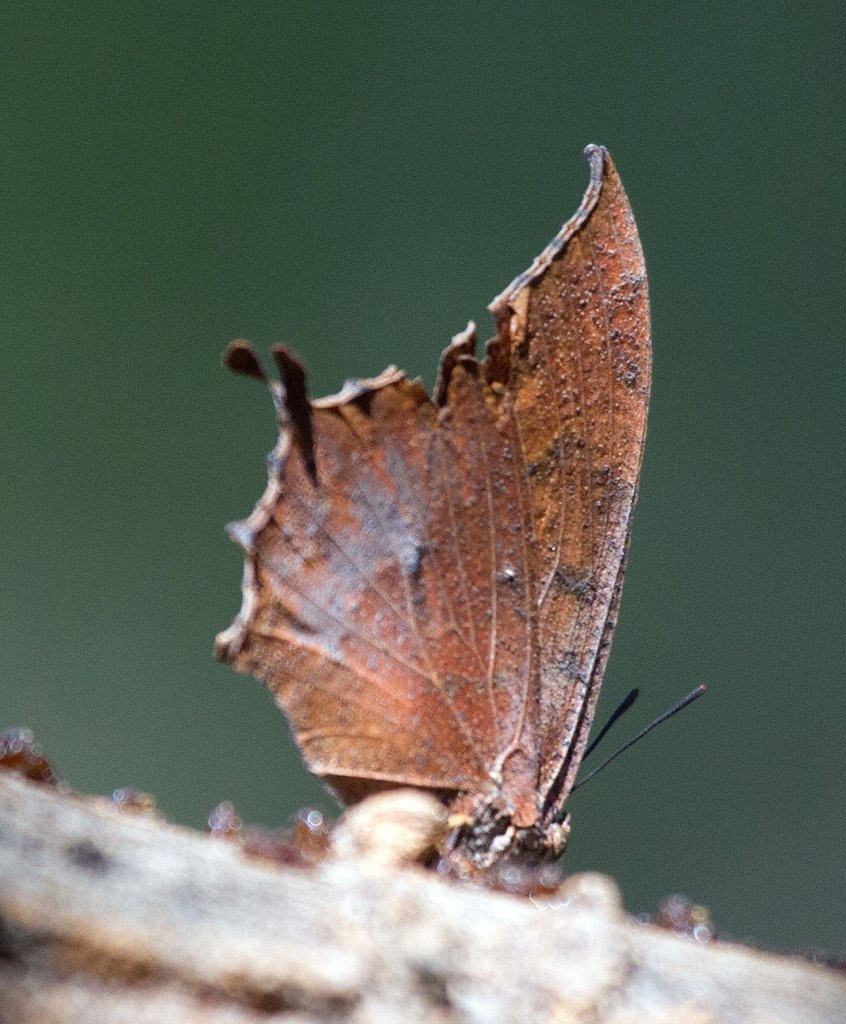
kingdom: Animalia
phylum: Arthropoda
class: Insecta
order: Lepidoptera
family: Nymphalidae
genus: Anaea
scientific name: Anaea aidea
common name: Tropical Leafwing
